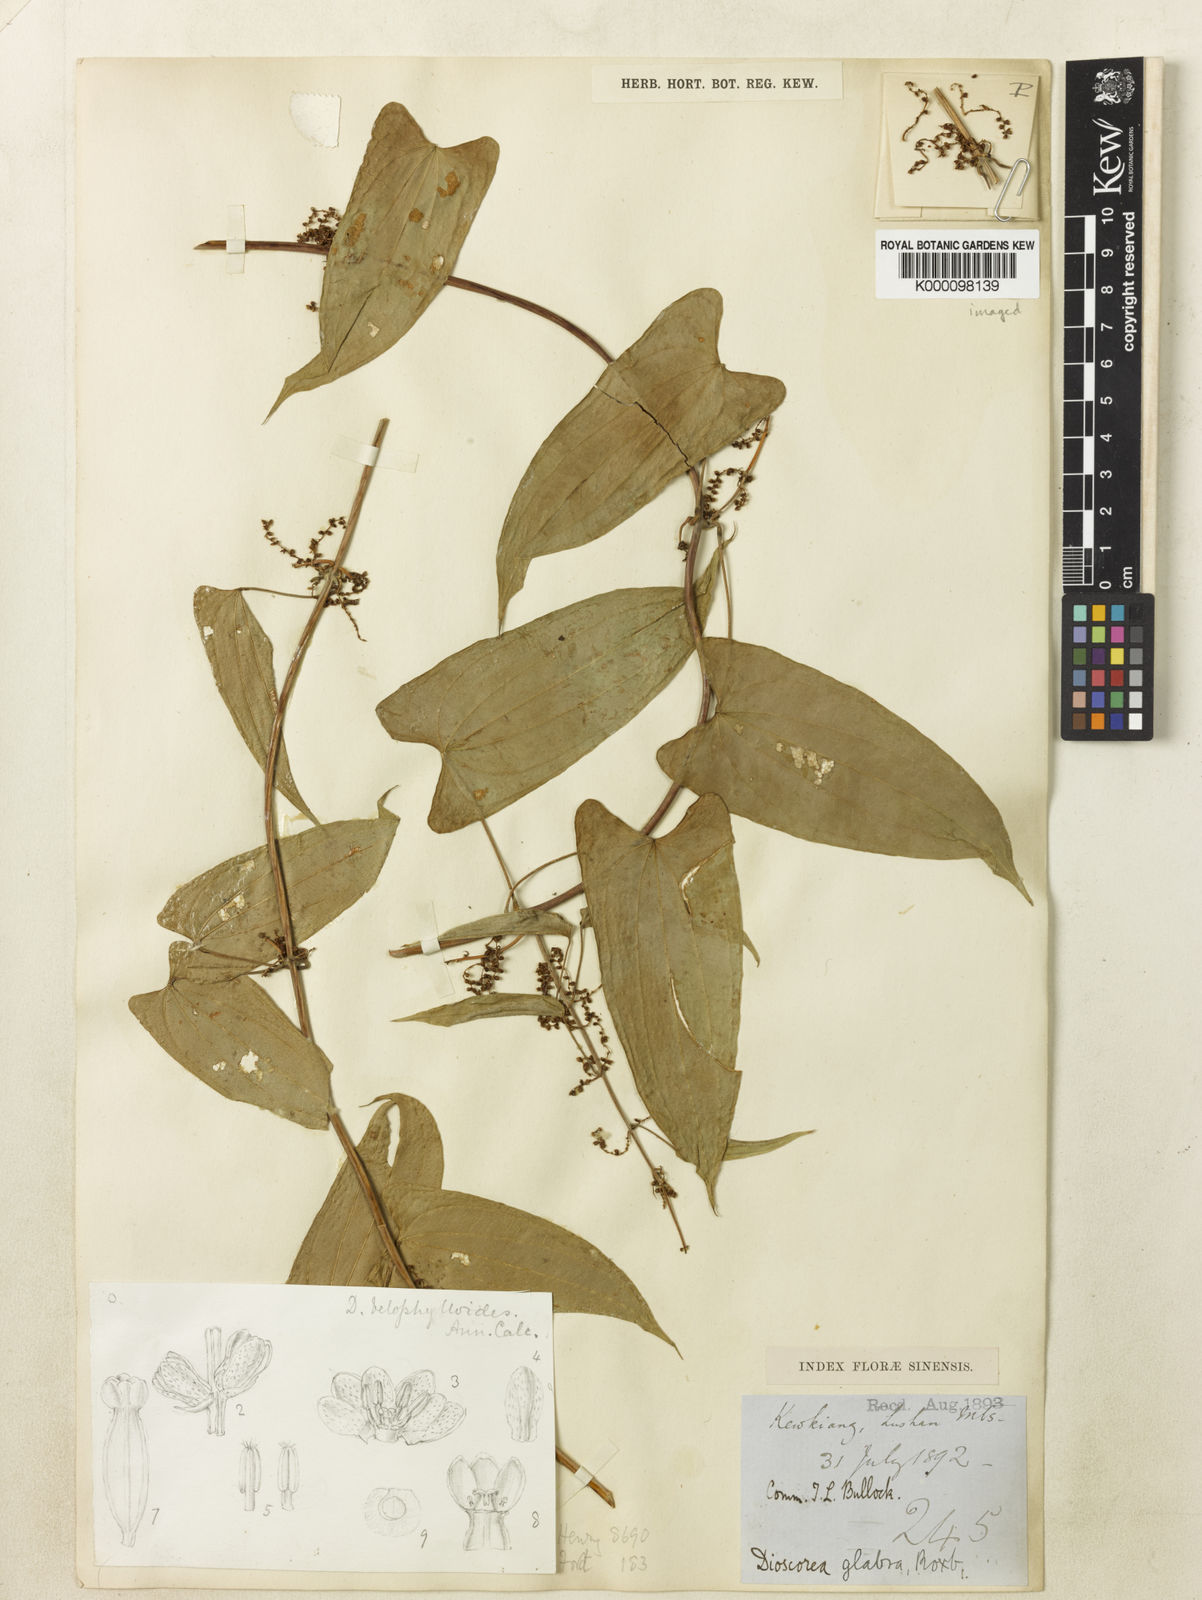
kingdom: Plantae
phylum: Tracheophyta
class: Liliopsida
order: Dioscoreales
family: Dioscoreaceae
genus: Dioscorea
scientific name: Dioscorea japonica
